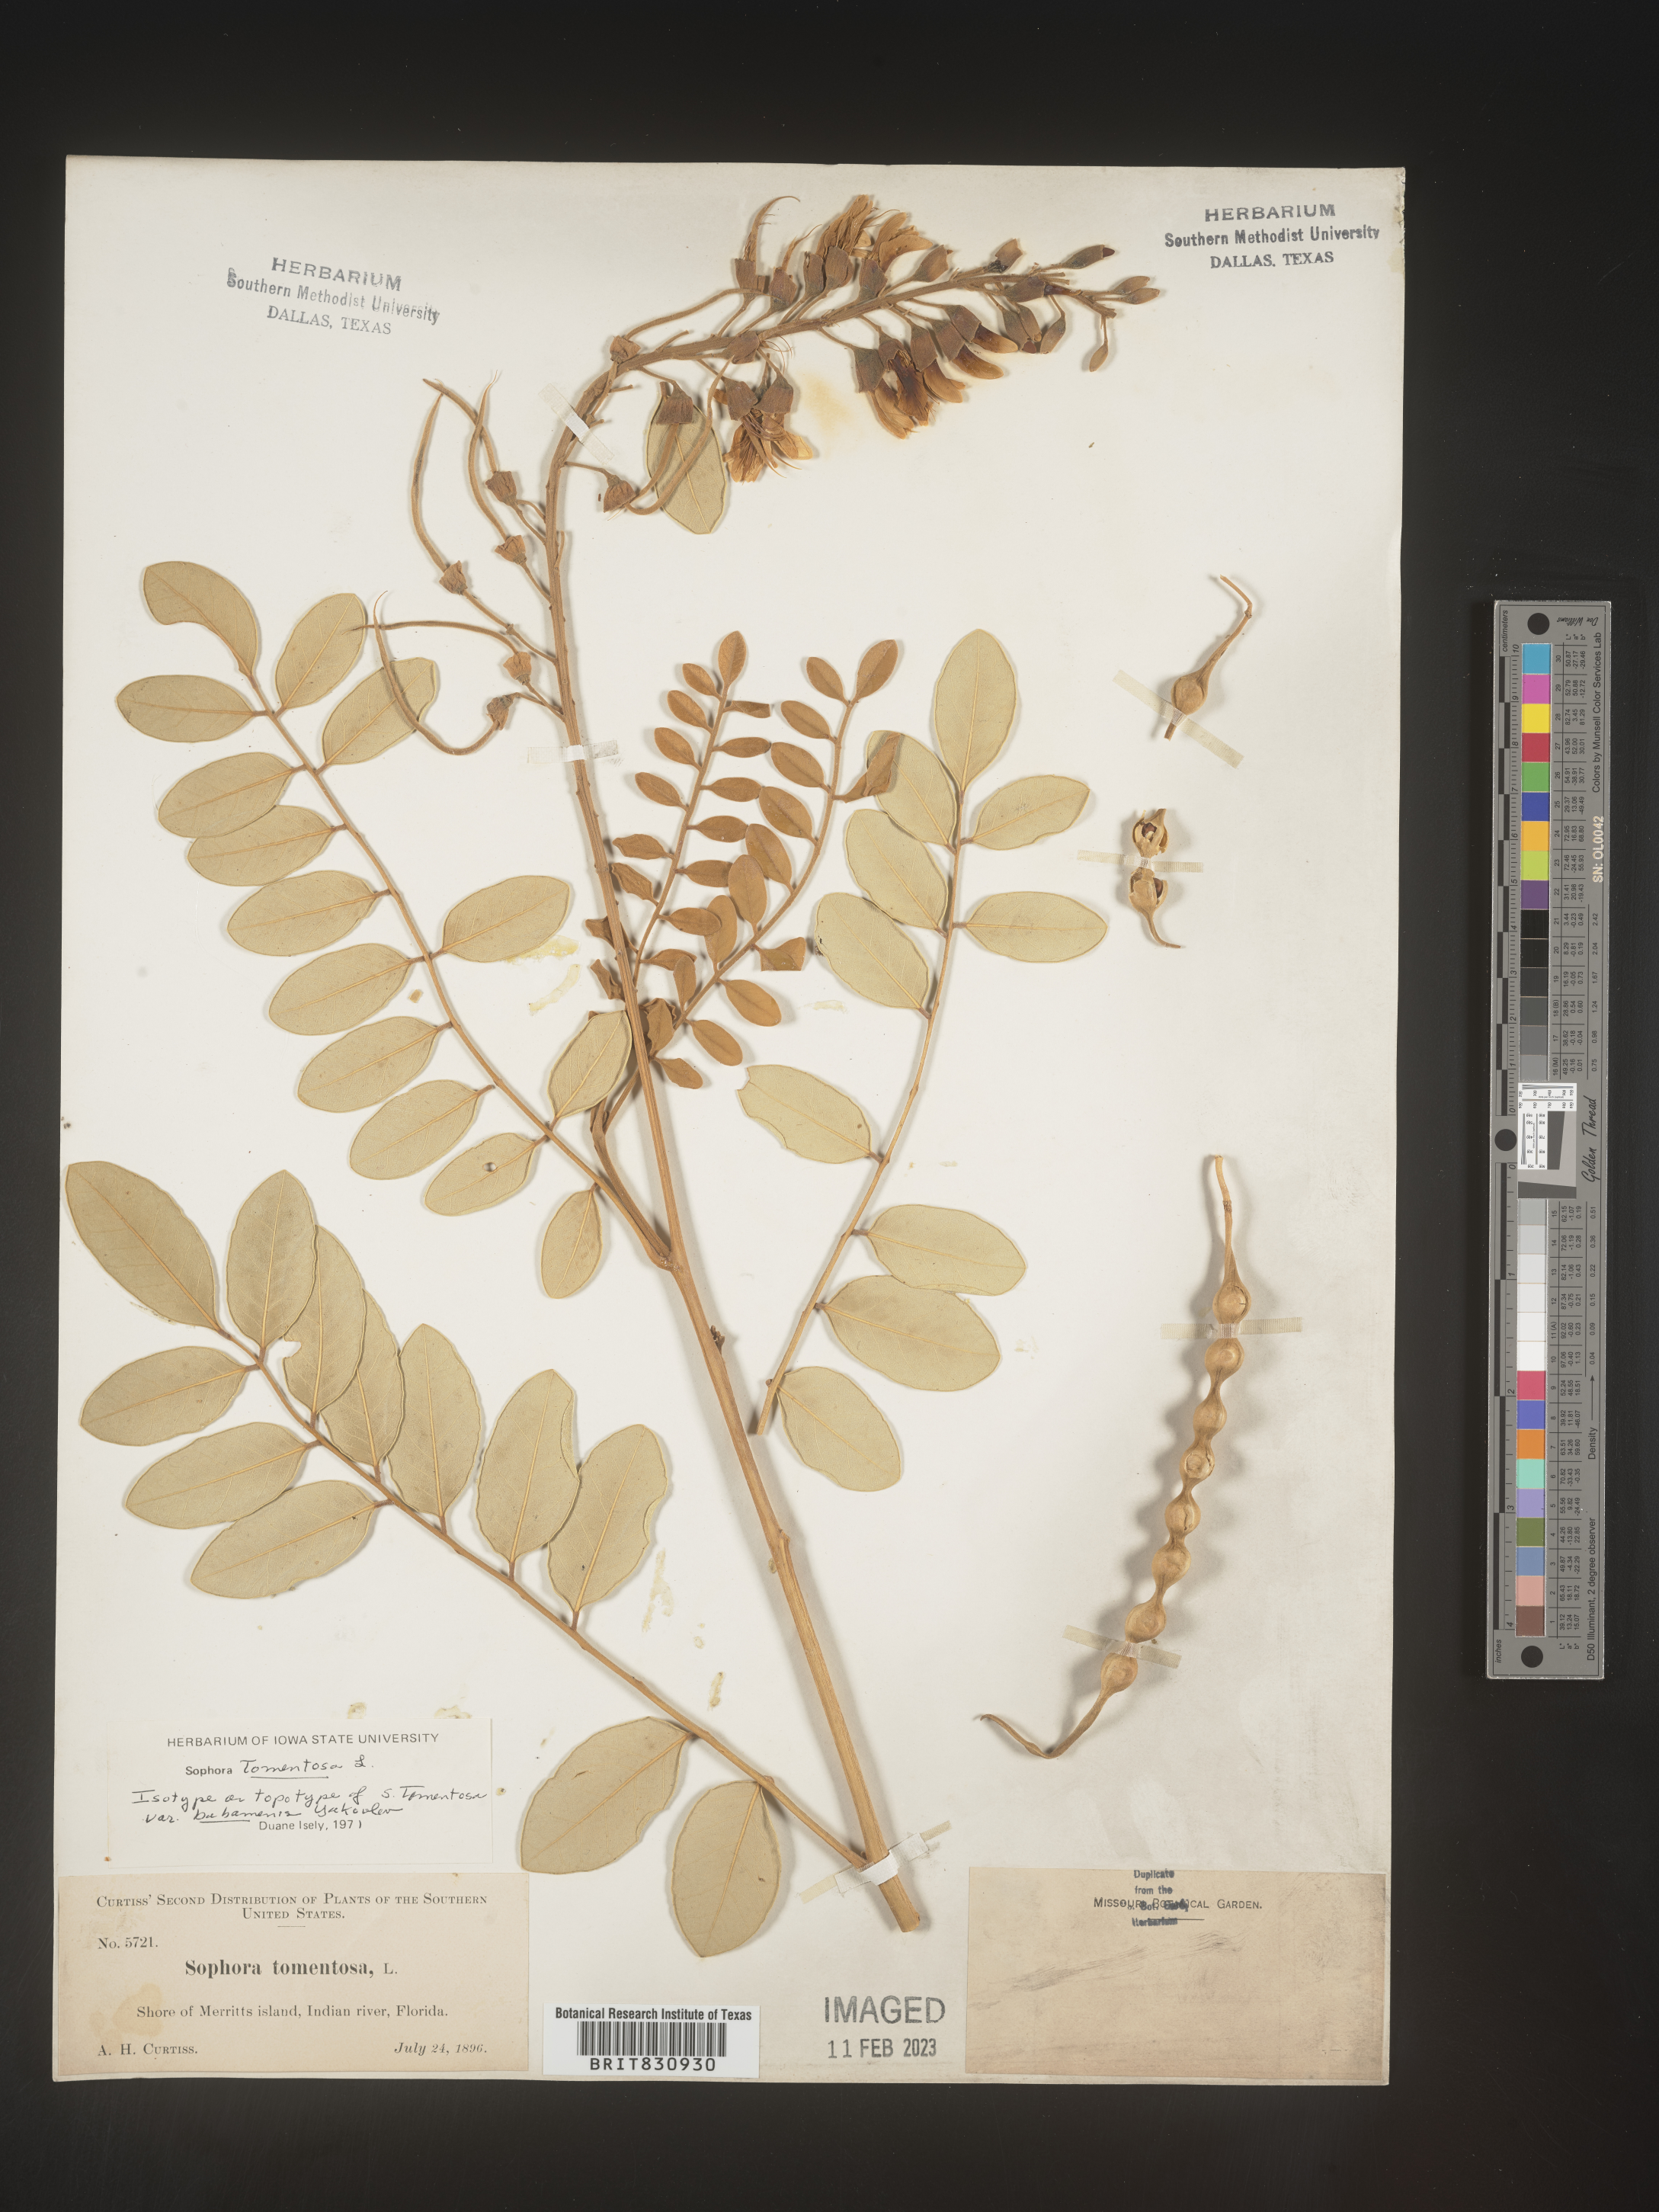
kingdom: Plantae
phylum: Tracheophyta
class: Magnoliopsida
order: Fabales
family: Fabaceae
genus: Sophora
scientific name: Sophora
